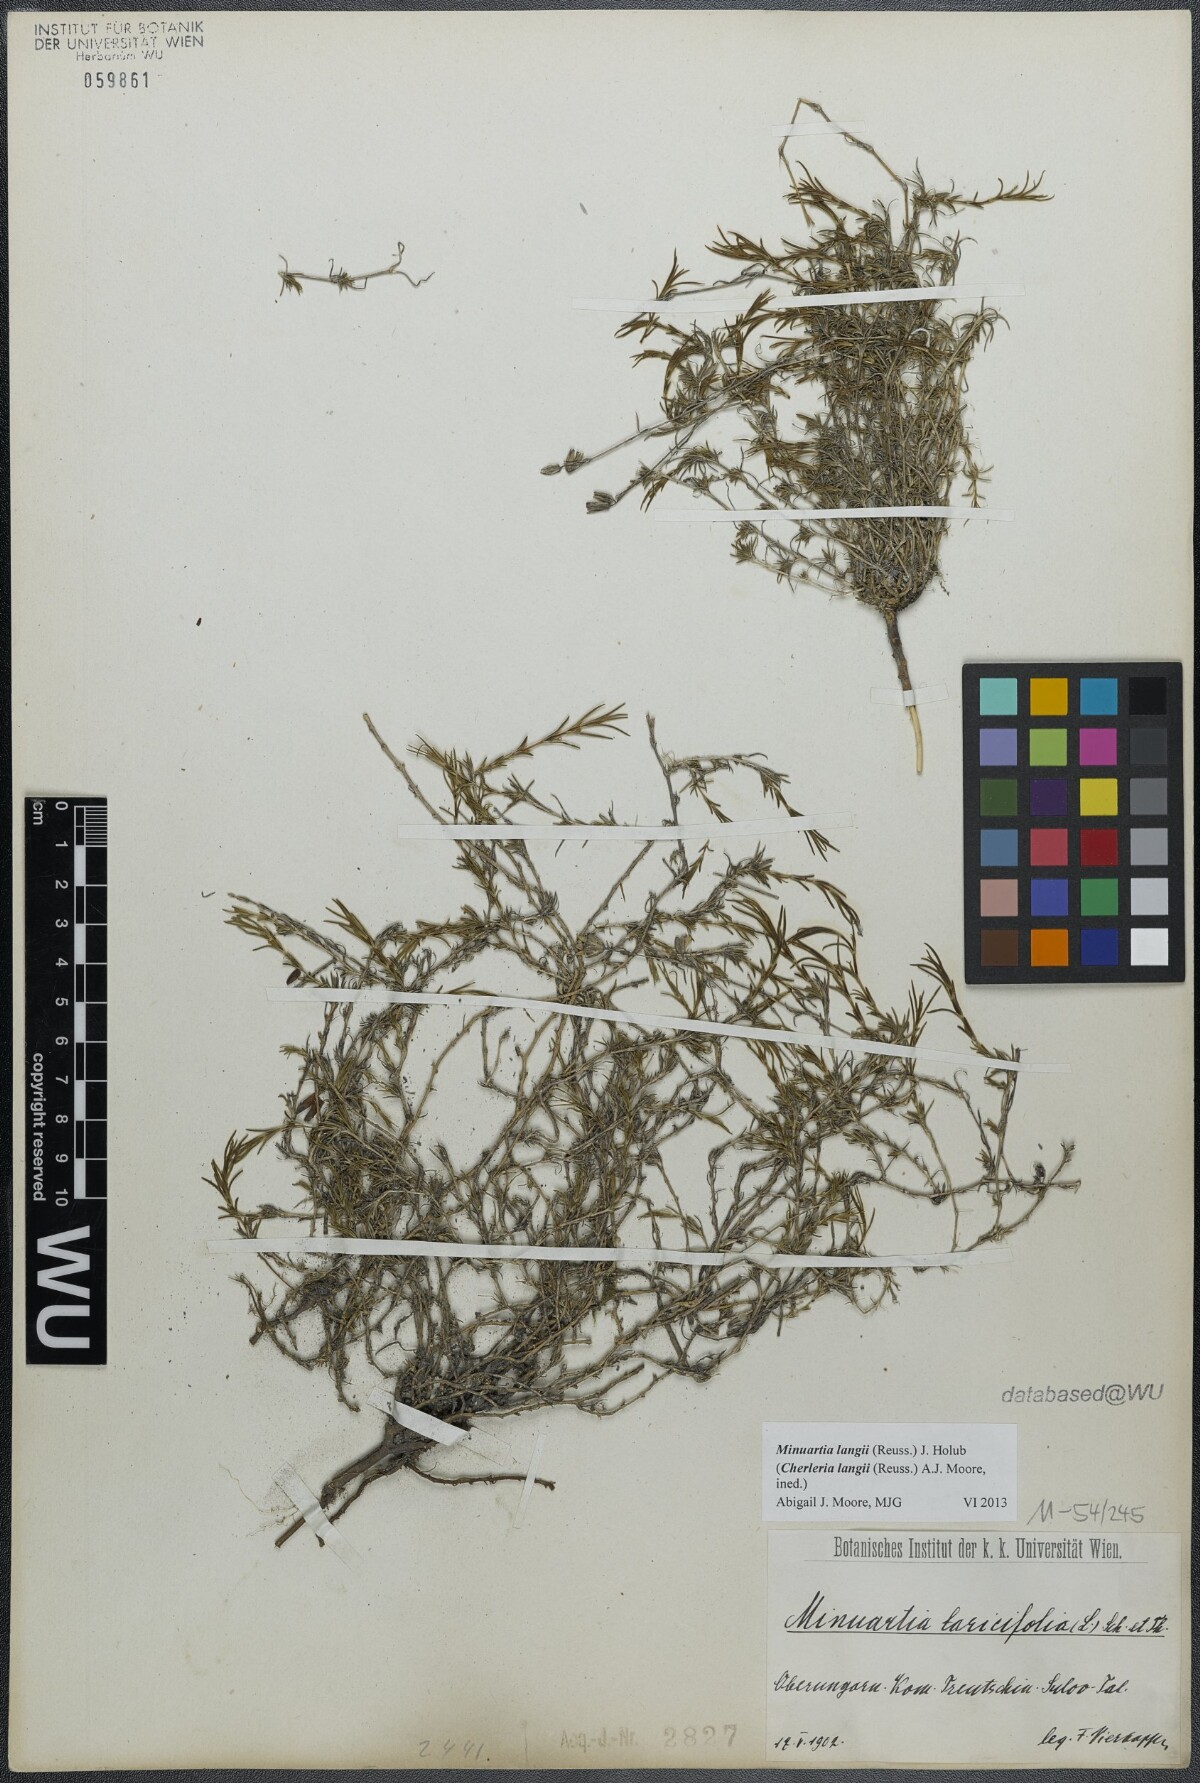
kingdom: Plantae
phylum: Tracheophyta
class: Magnoliopsida
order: Caryophyllales
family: Caryophyllaceae
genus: Cherleria
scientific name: Cherleria langii
